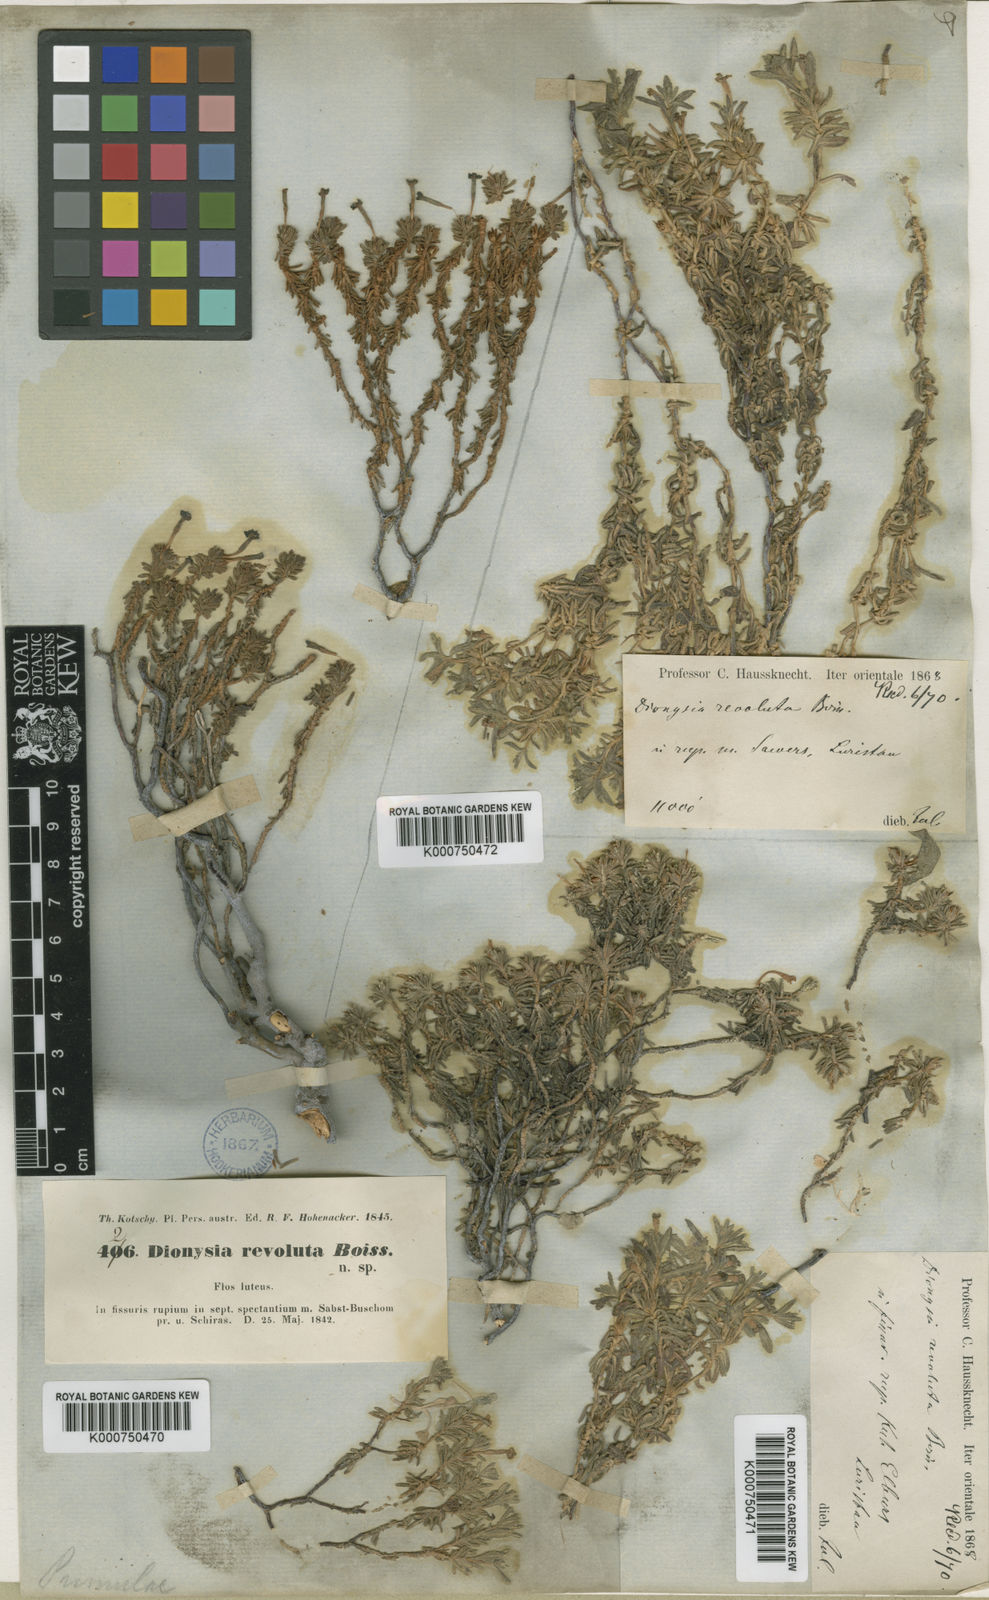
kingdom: Plantae
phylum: Tracheophyta
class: Magnoliopsida
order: Ericales
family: Primulaceae
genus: Dionysia
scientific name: Dionysia revoluta
